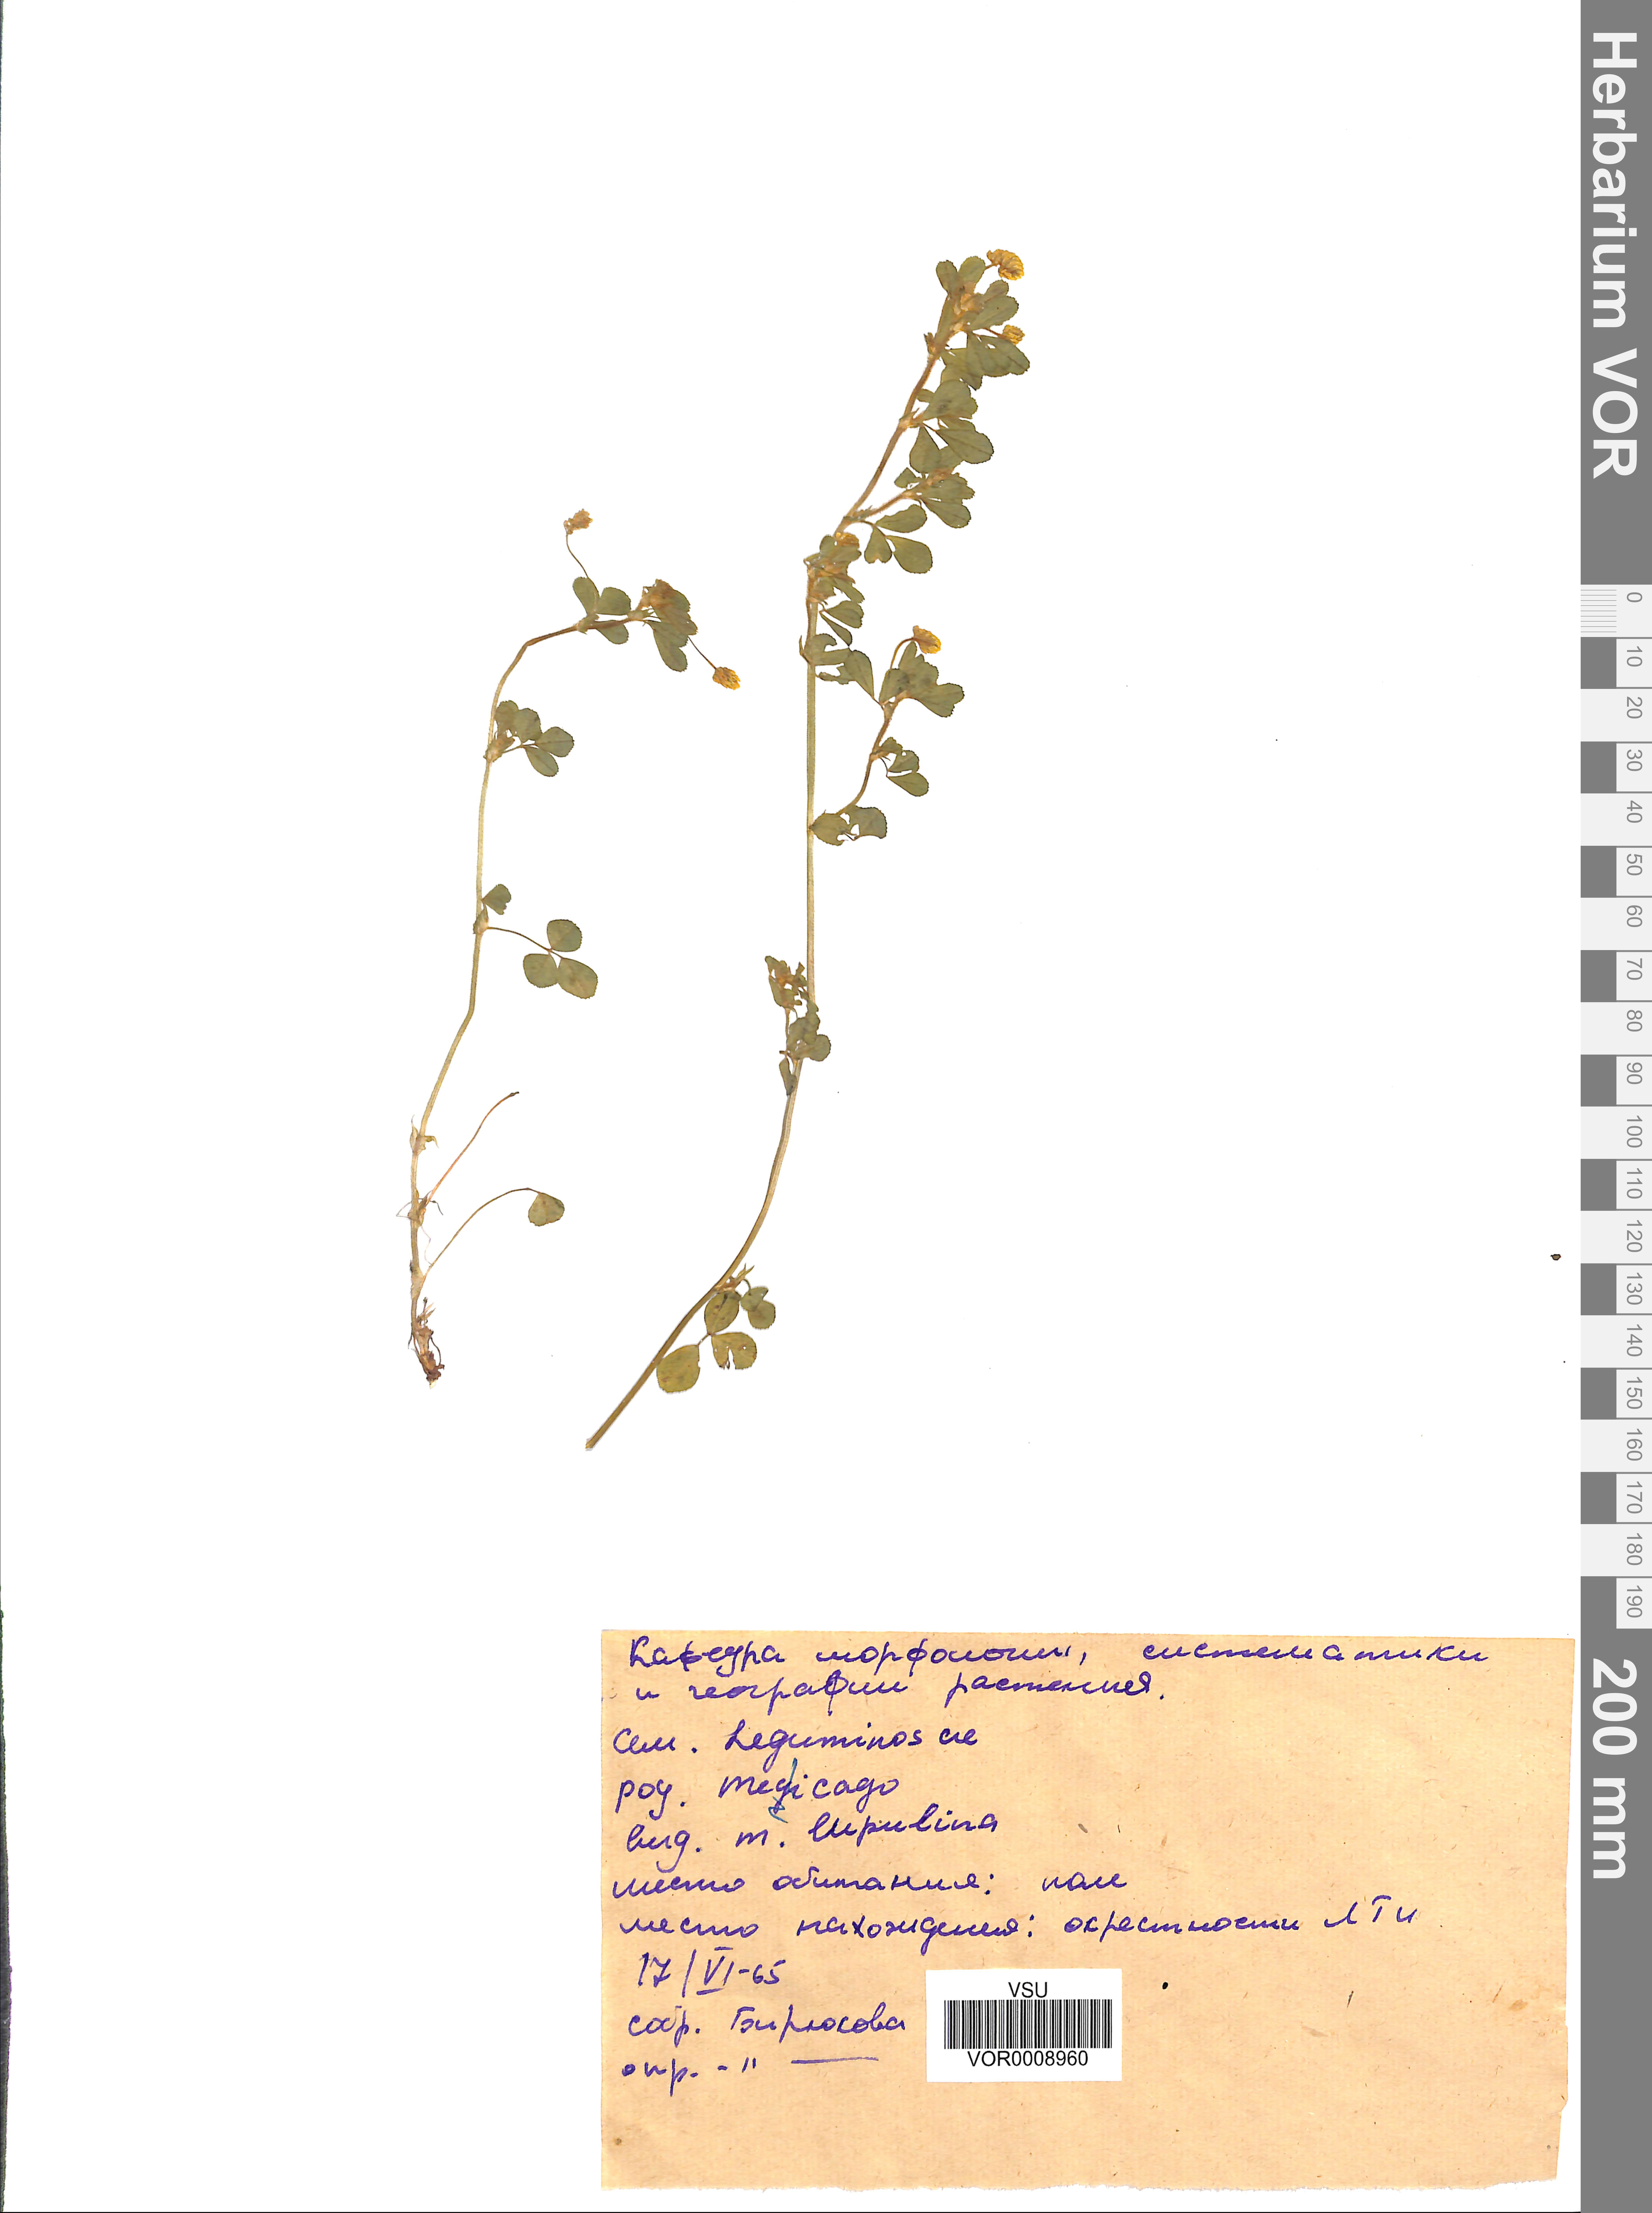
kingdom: Plantae
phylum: Tracheophyta
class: Magnoliopsida
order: Fabales
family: Fabaceae
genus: Medicago
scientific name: Medicago lupulina
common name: Black medick
